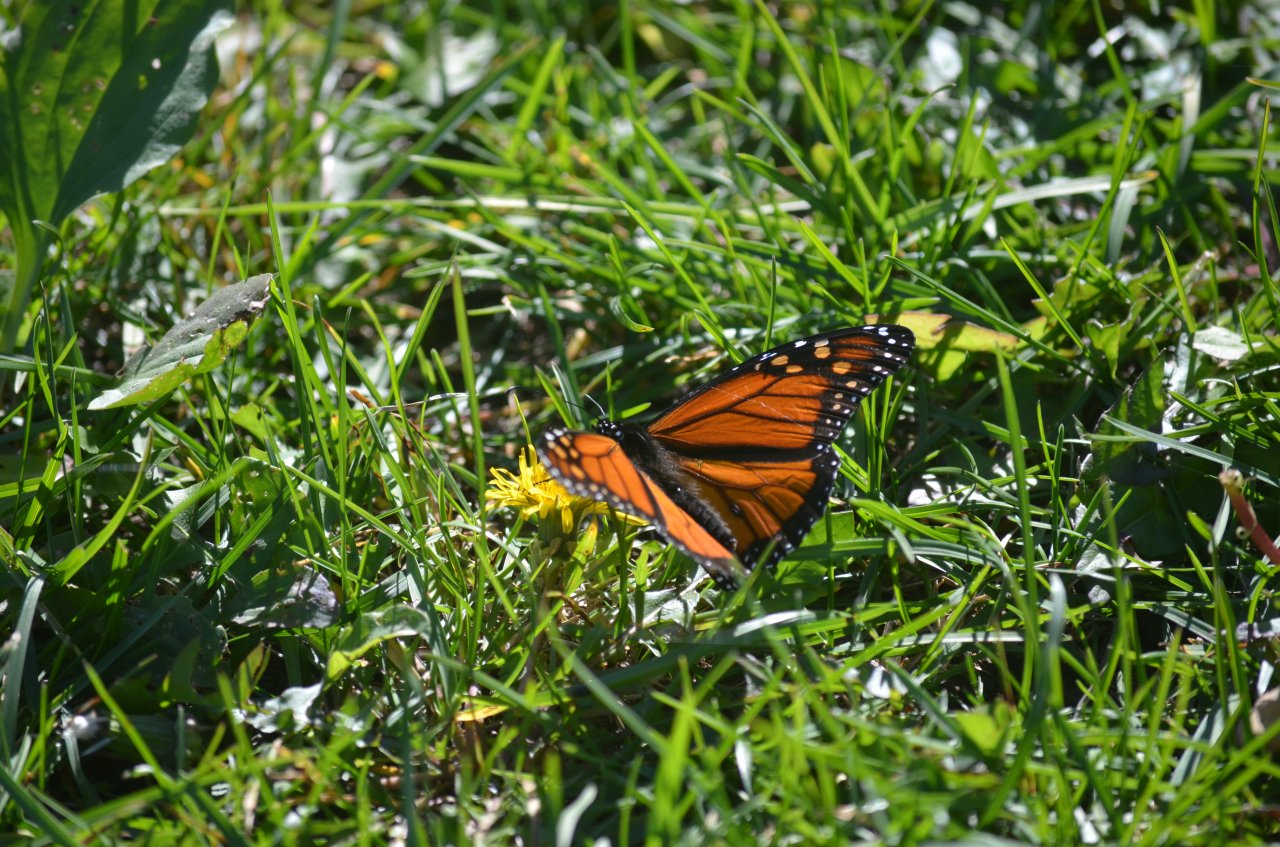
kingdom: Animalia
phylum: Arthropoda
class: Insecta
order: Lepidoptera
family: Nymphalidae
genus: Danaus
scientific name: Danaus plexippus
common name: Monarch
